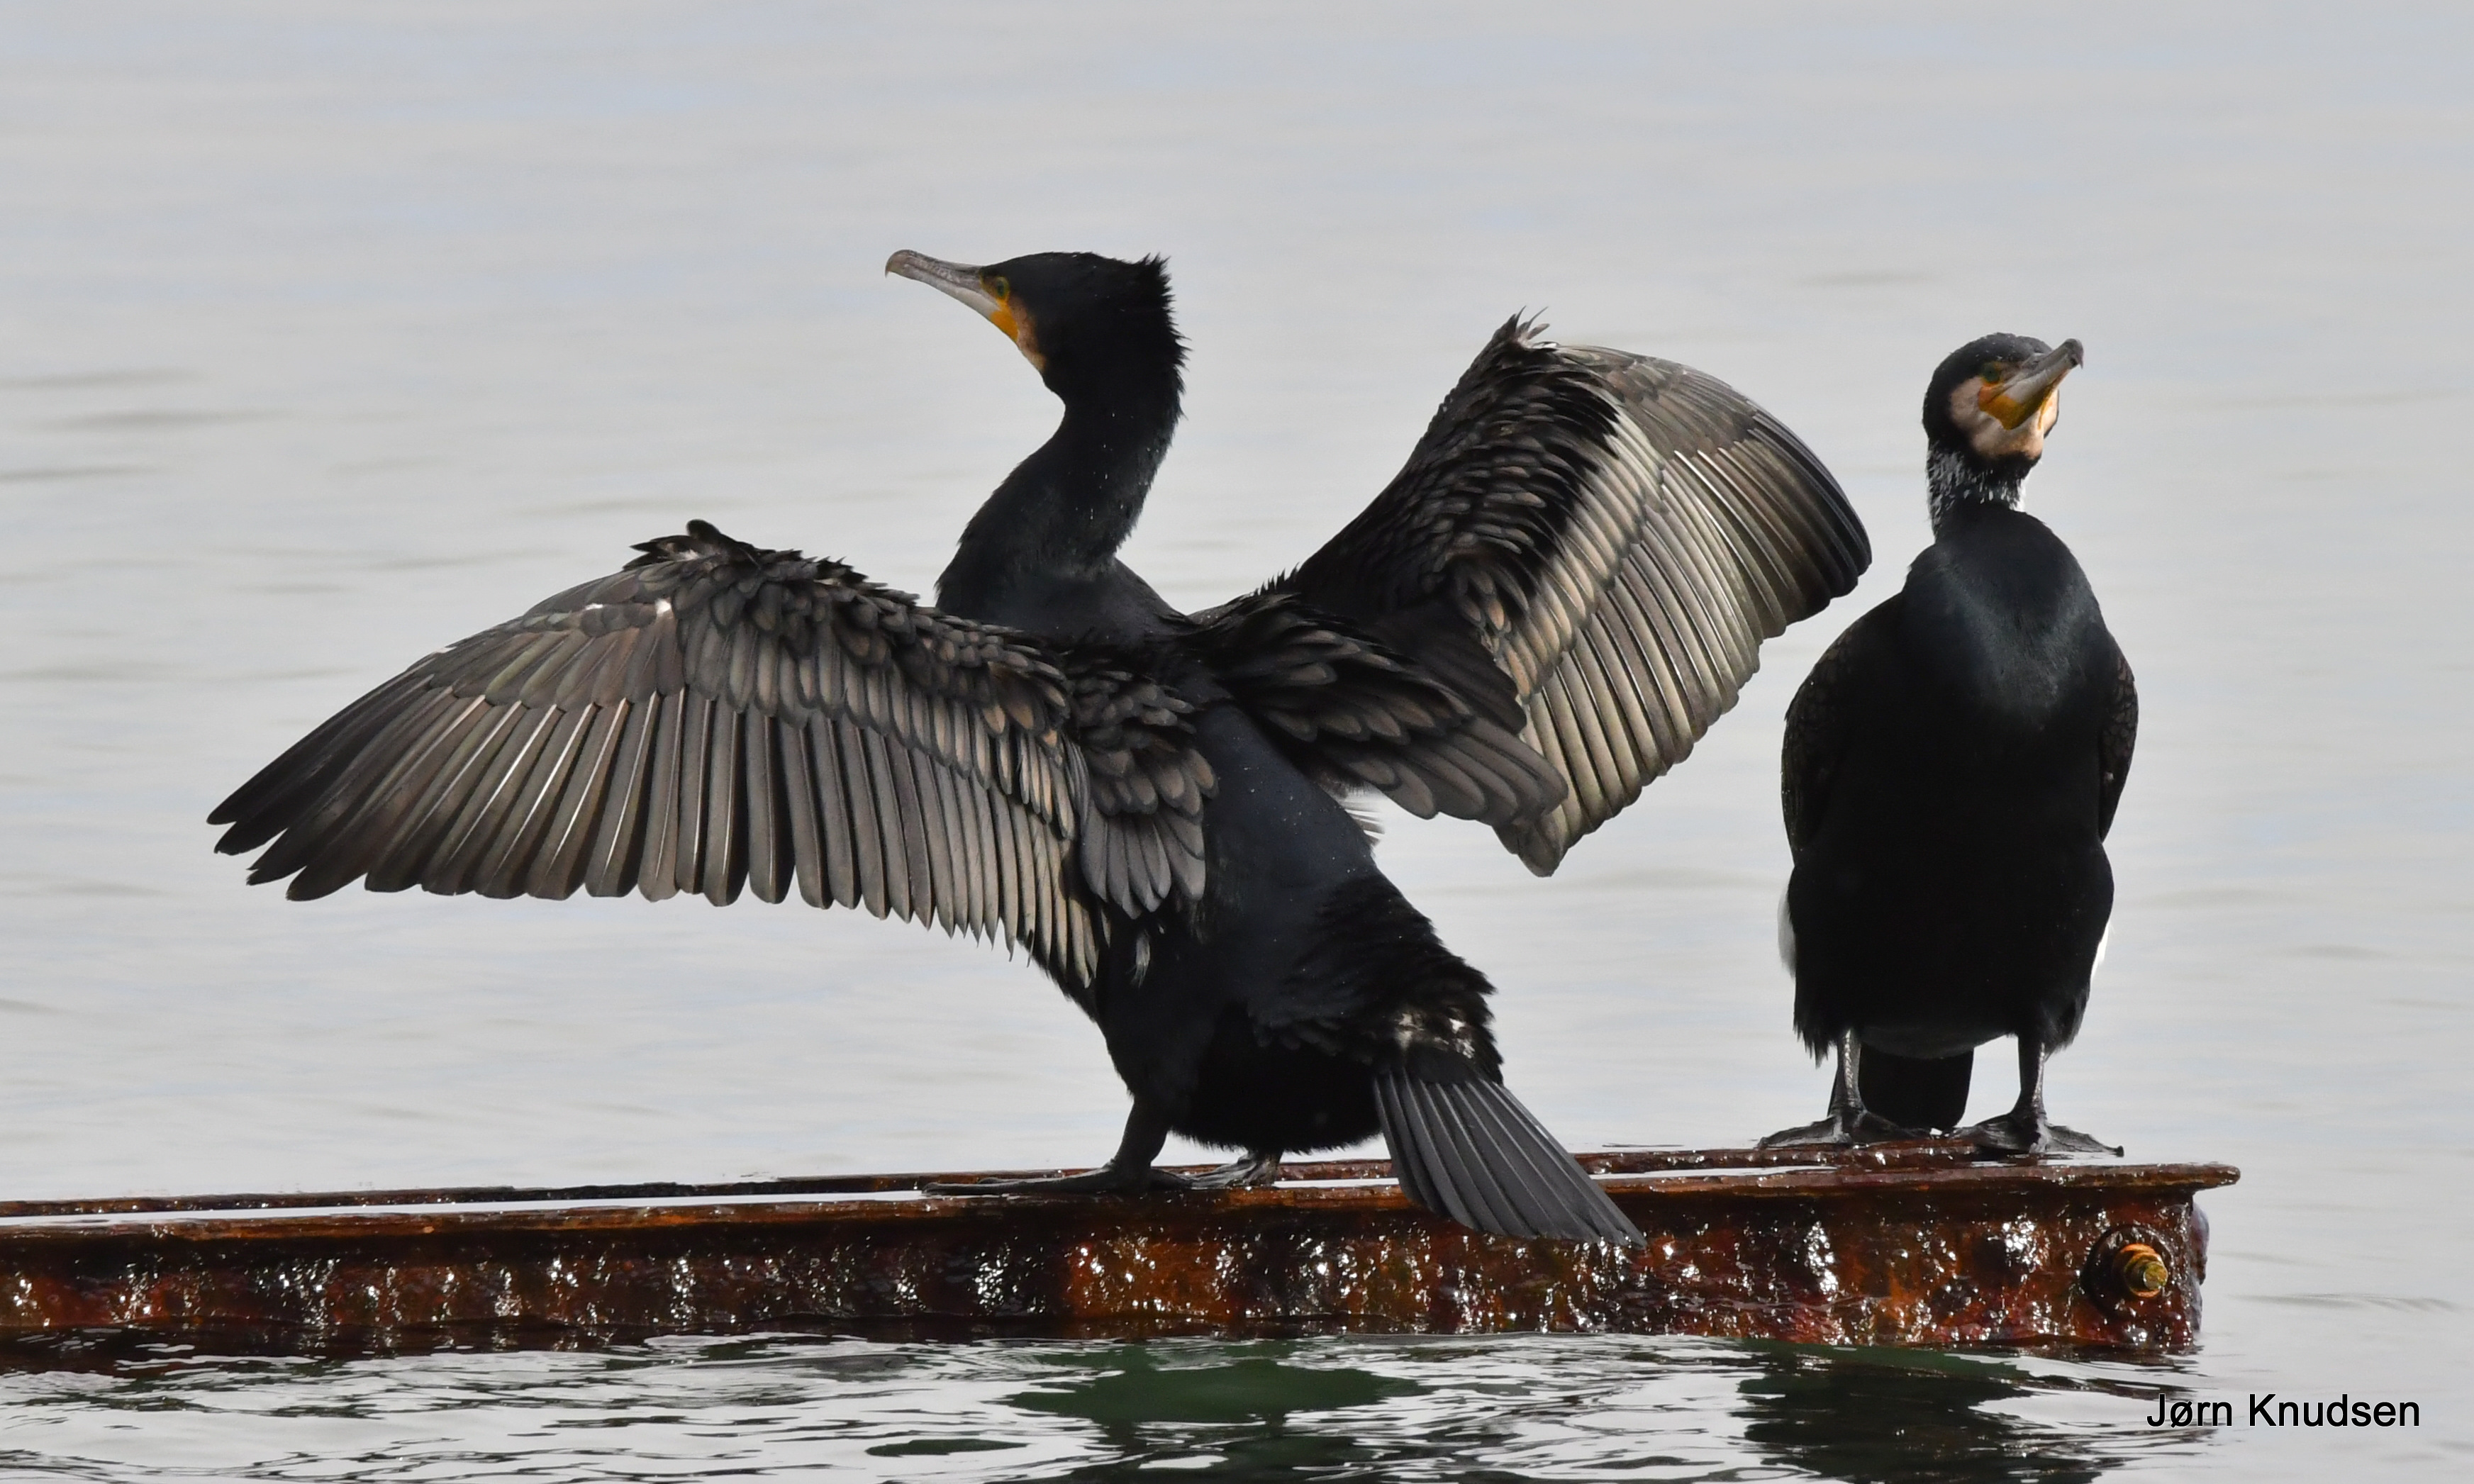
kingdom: Animalia
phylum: Chordata
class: Aves
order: Suliformes
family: Phalacrocoracidae
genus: Phalacrocorax
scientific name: Phalacrocorax carbo
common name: Skarv
